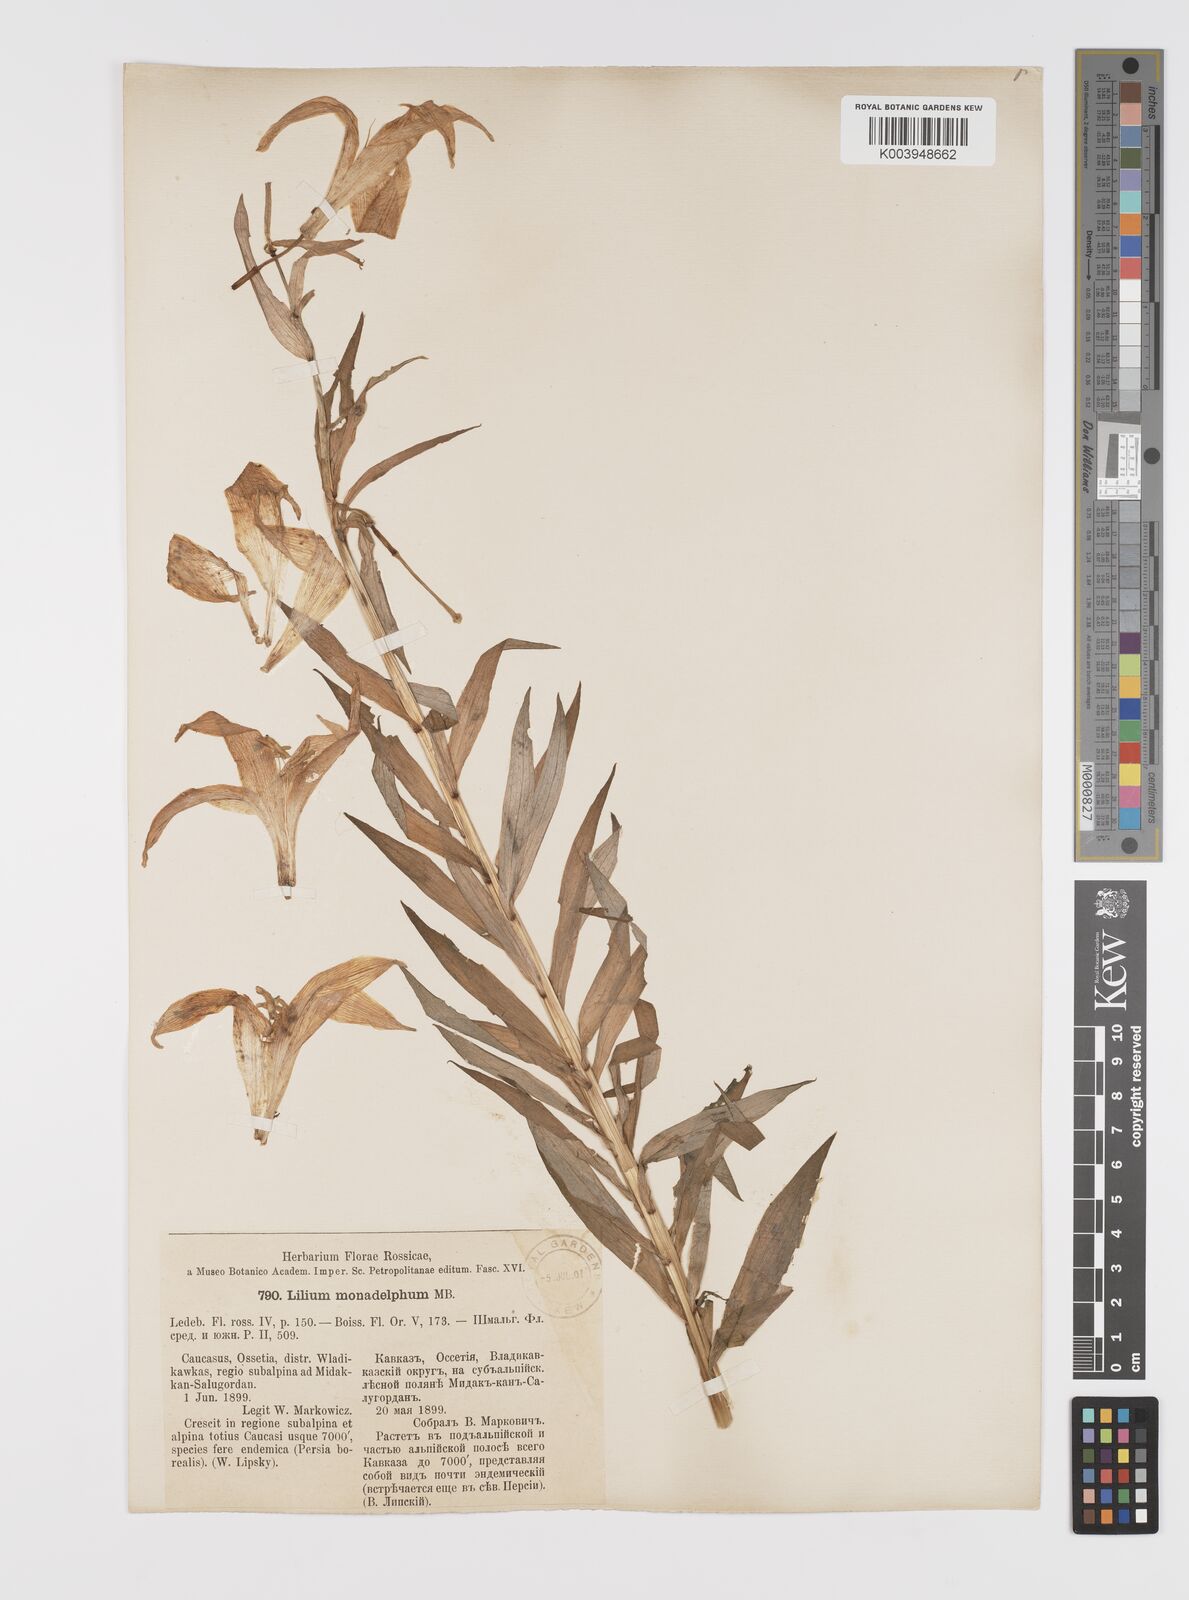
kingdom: Plantae
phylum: Tracheophyta
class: Liliopsida
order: Liliales
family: Liliaceae
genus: Lilium
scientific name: Lilium monadelphum
